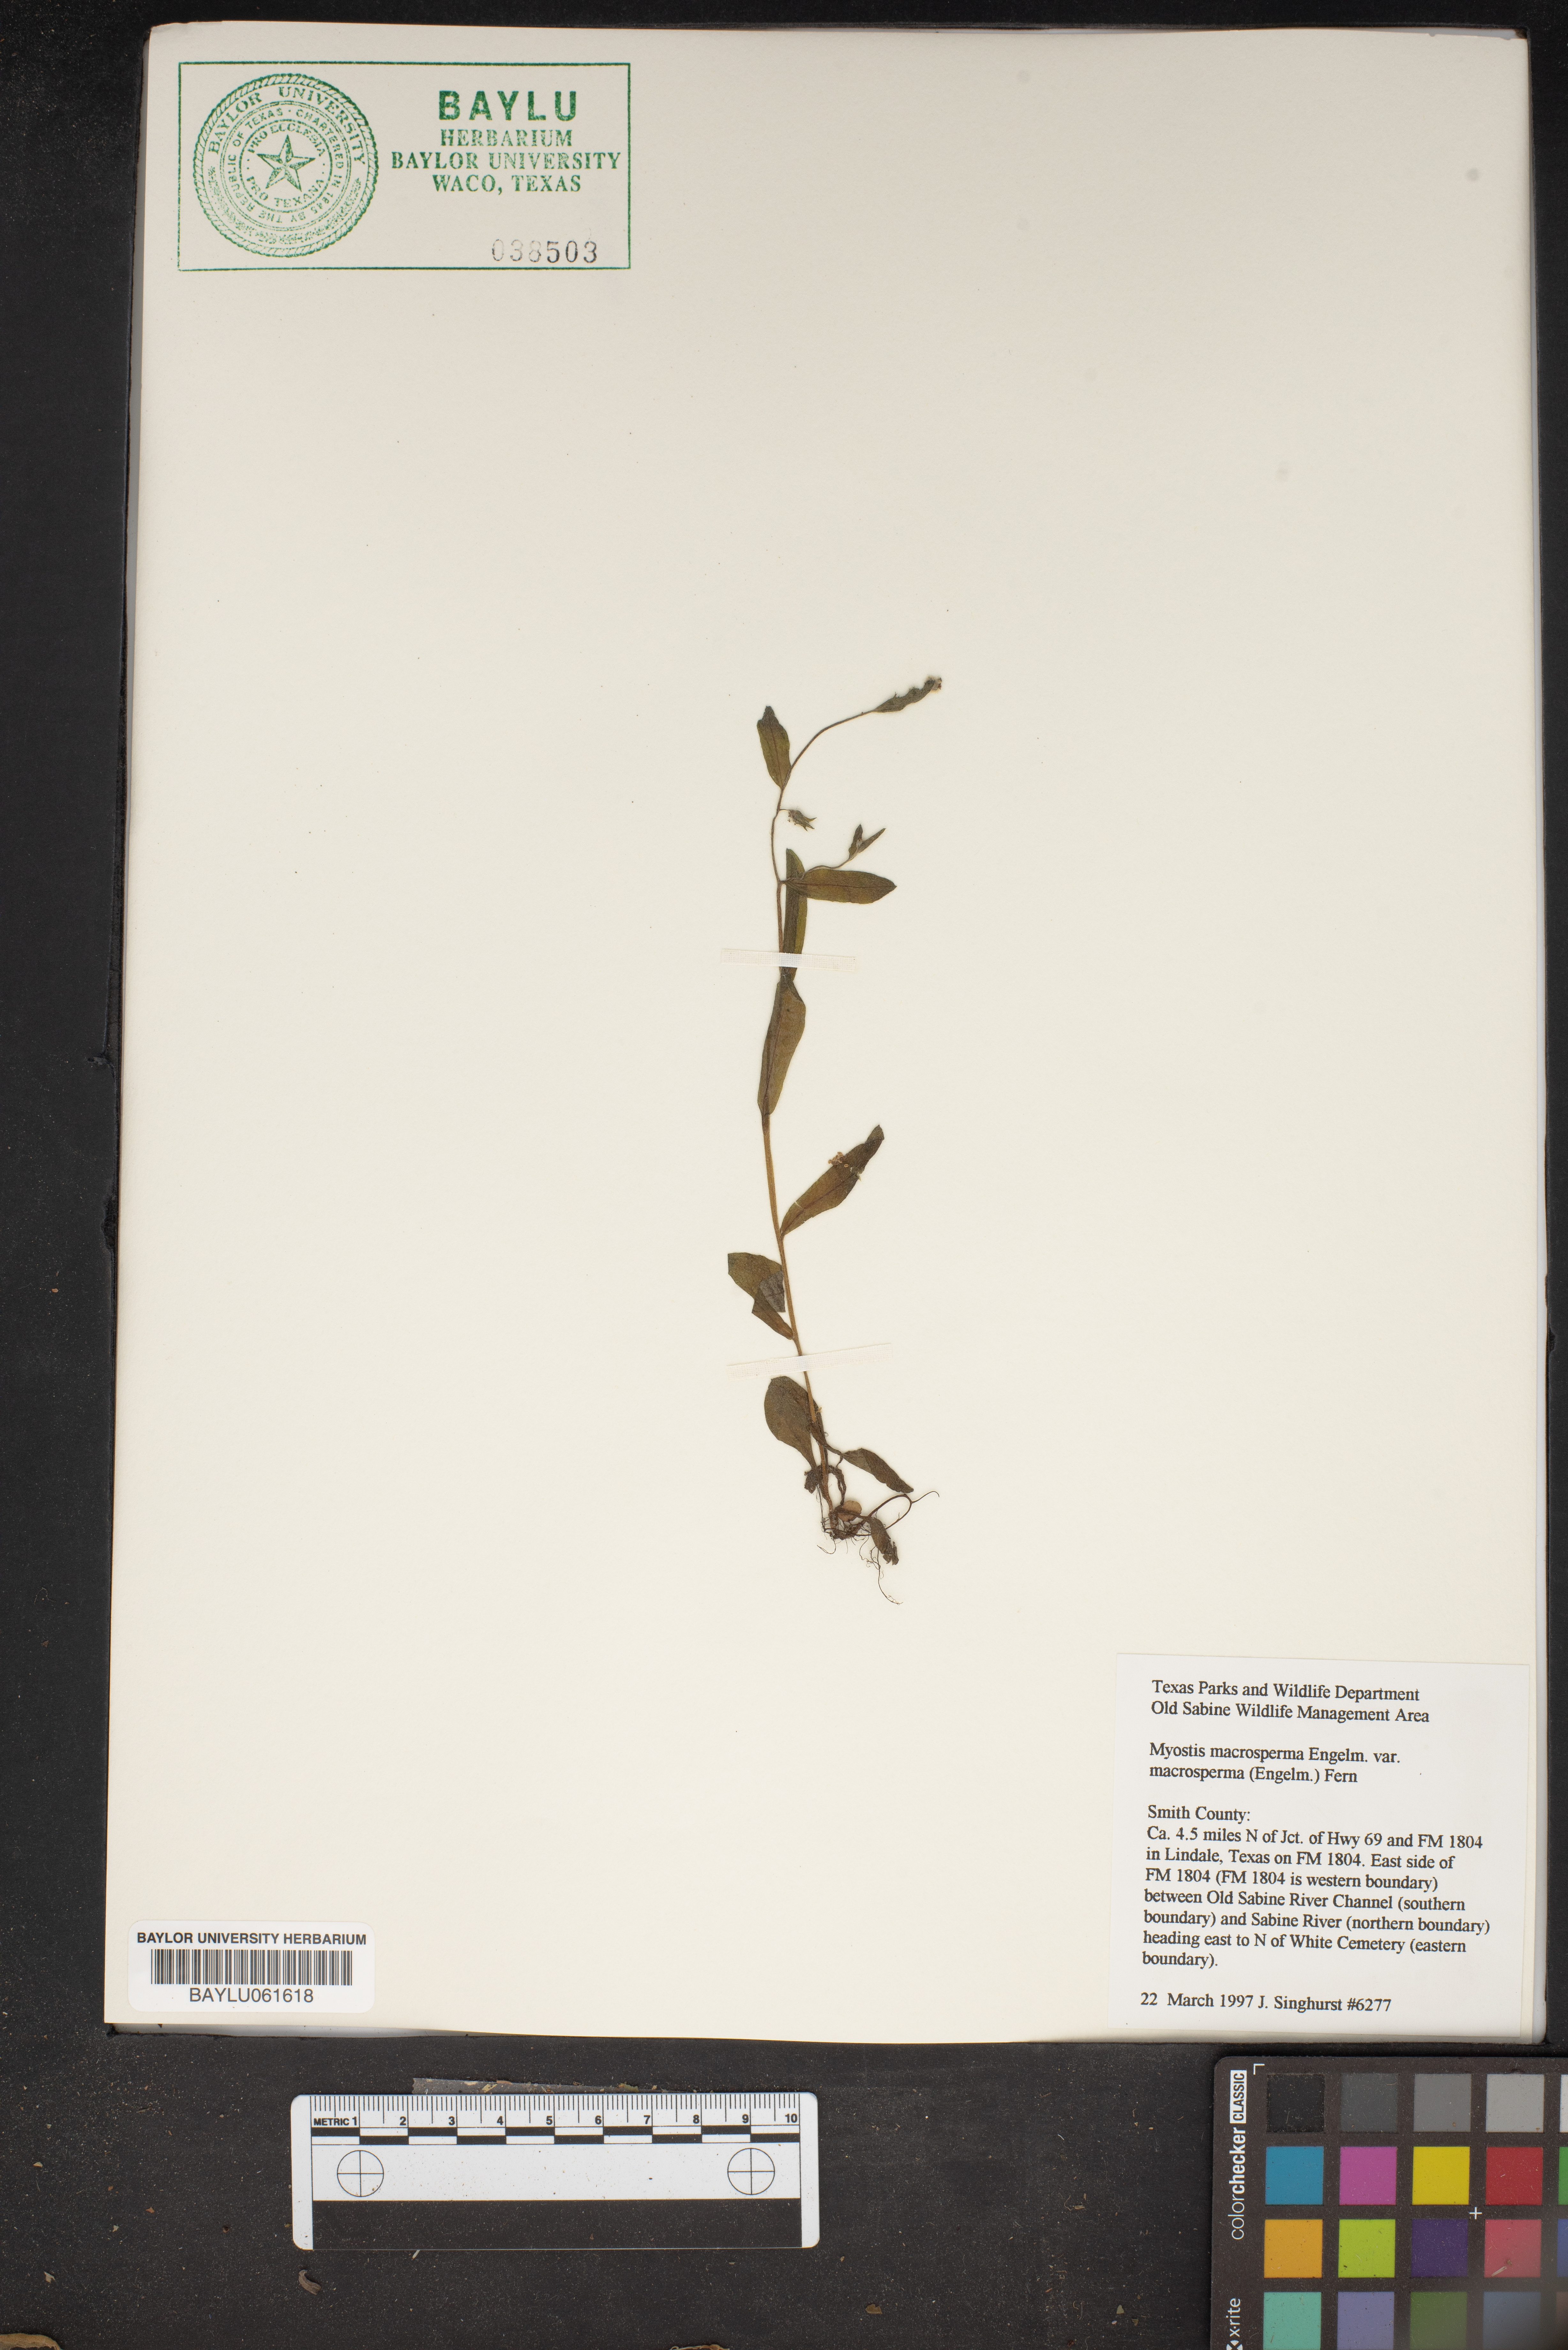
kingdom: Plantae
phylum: Tracheophyta
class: Magnoliopsida
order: Boraginales
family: Boraginaceae
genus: Myosotis
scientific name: Myosotis macrosperma
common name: Large-seed forget-me-not
